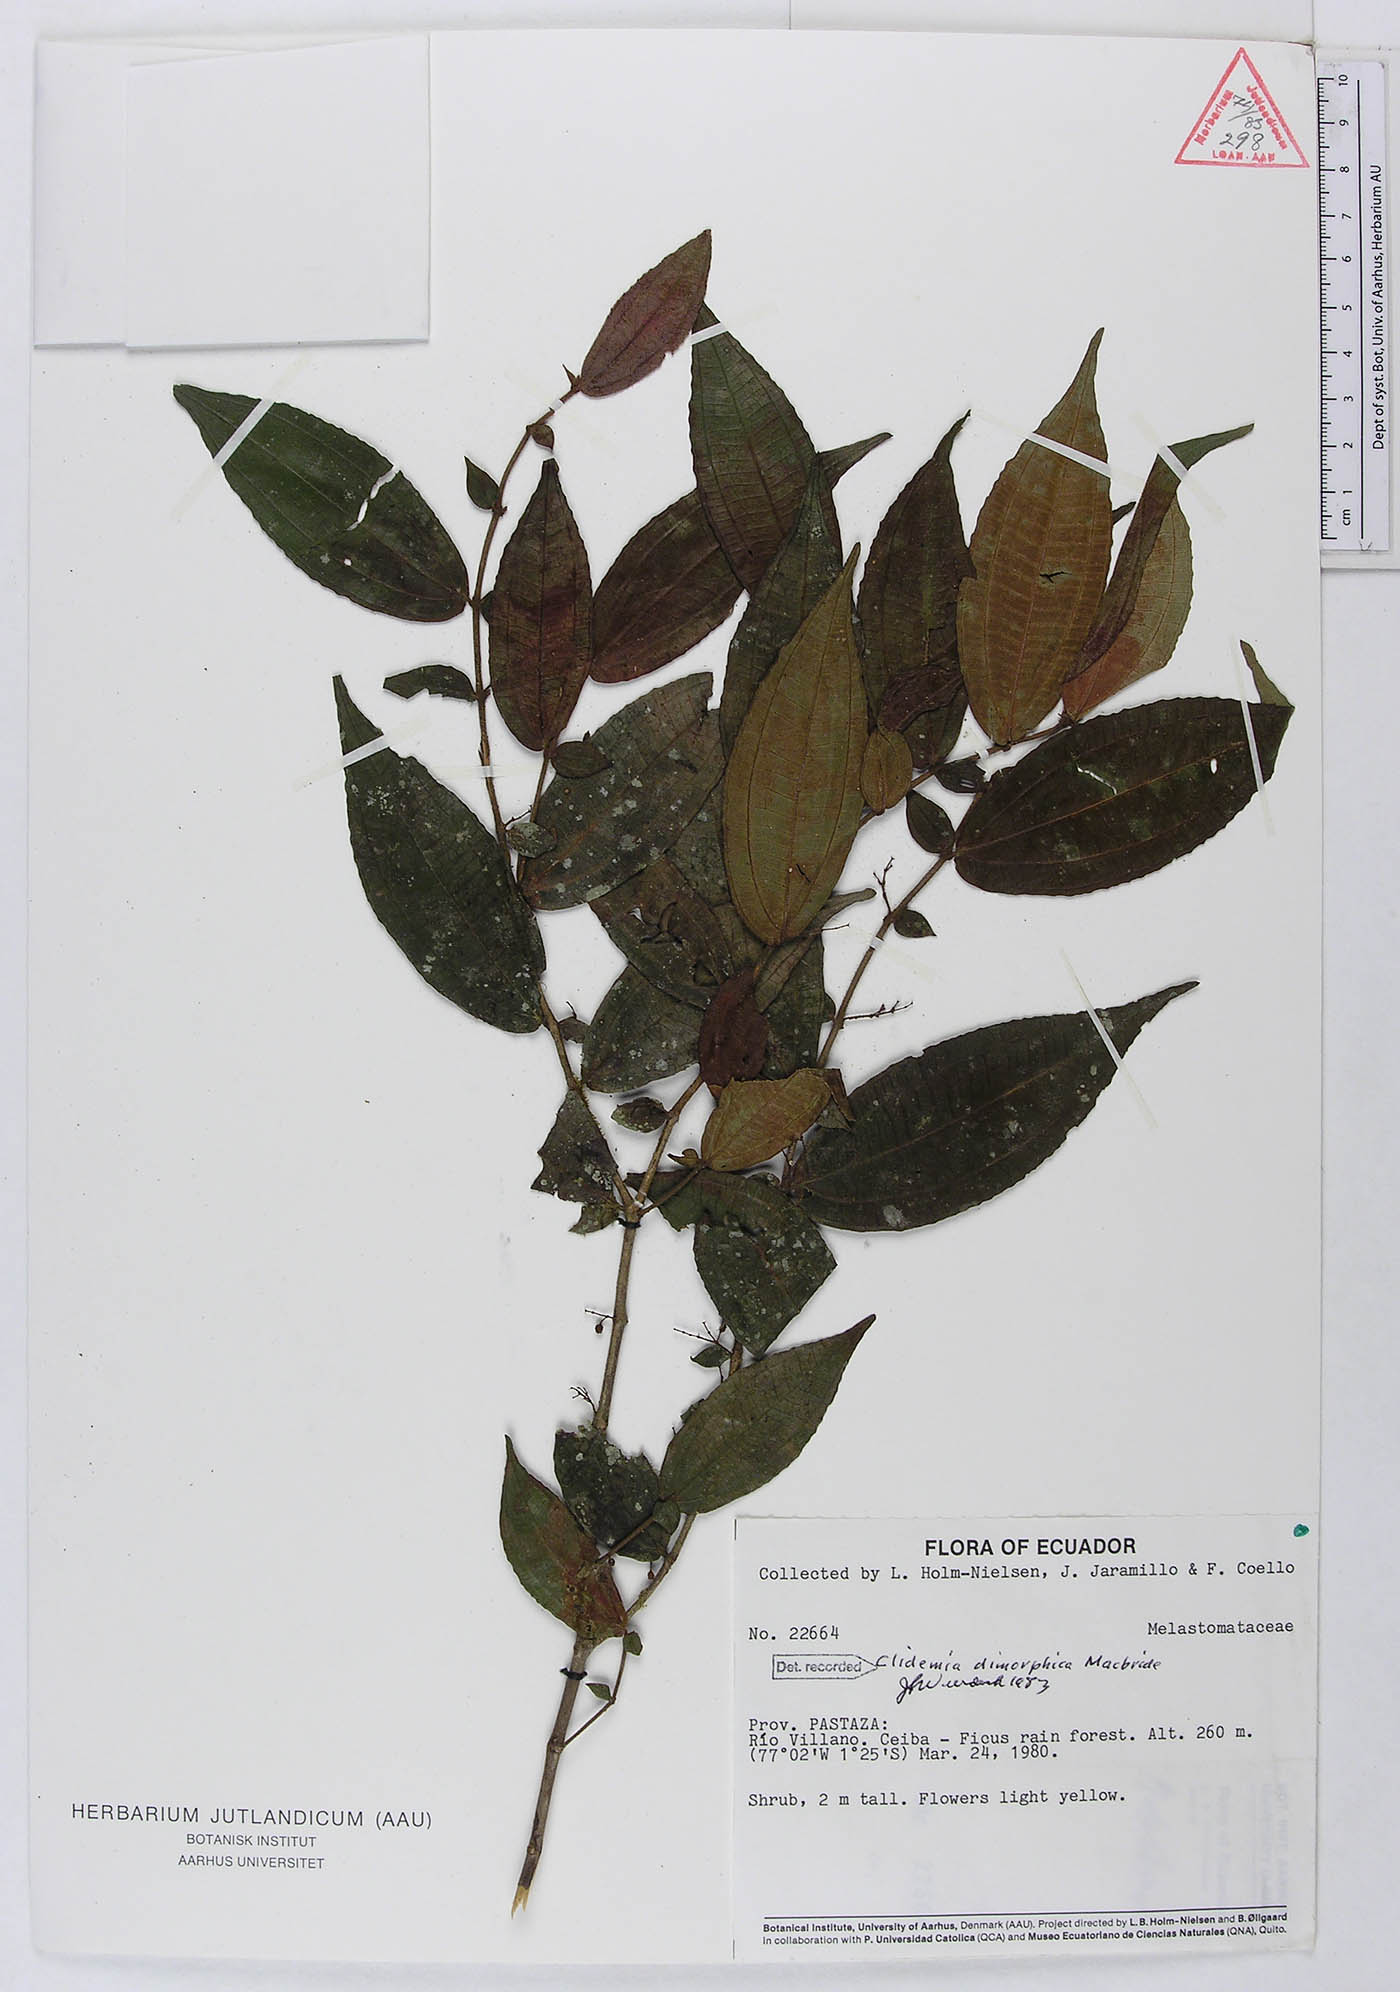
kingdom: Plantae
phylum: Tracheophyta
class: Magnoliopsida
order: Myrtales
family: Melastomataceae
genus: Miconia
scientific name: Miconia dimorphica
